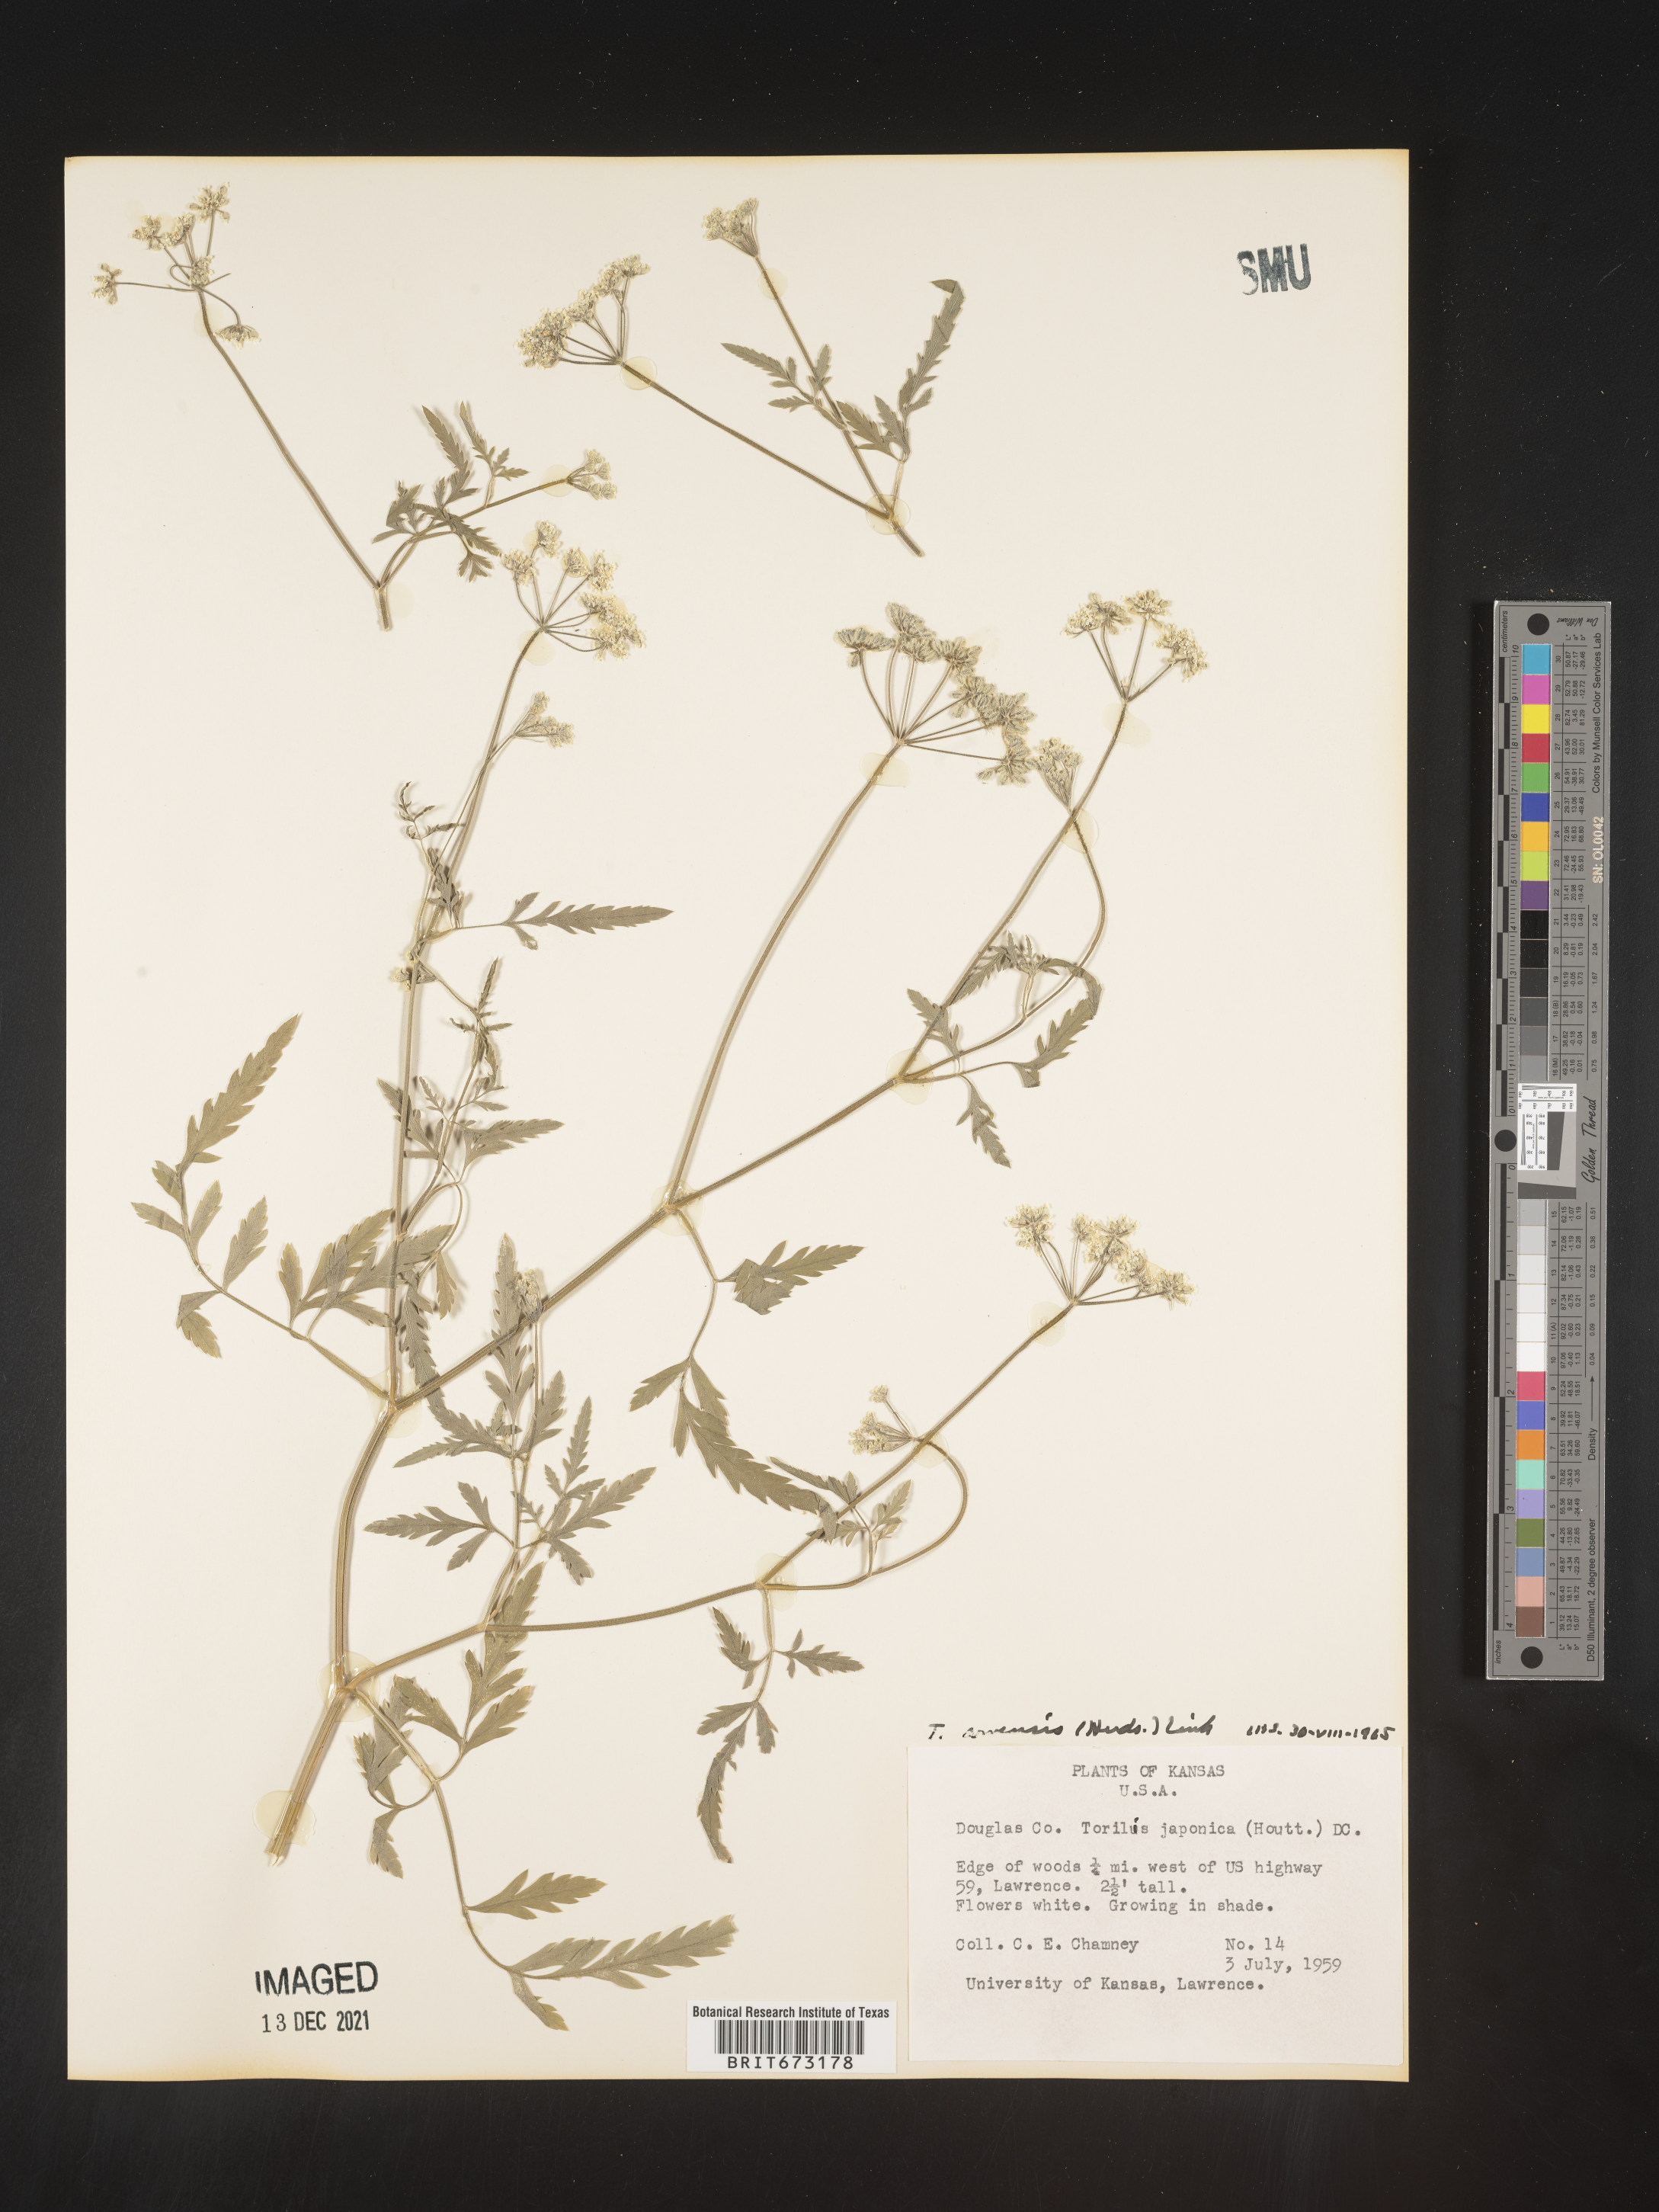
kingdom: Plantae
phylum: Tracheophyta
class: Magnoliopsida
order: Apiales
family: Apiaceae
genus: Torilis
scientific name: Torilis arvensis
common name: Spreading hedge-parsley
